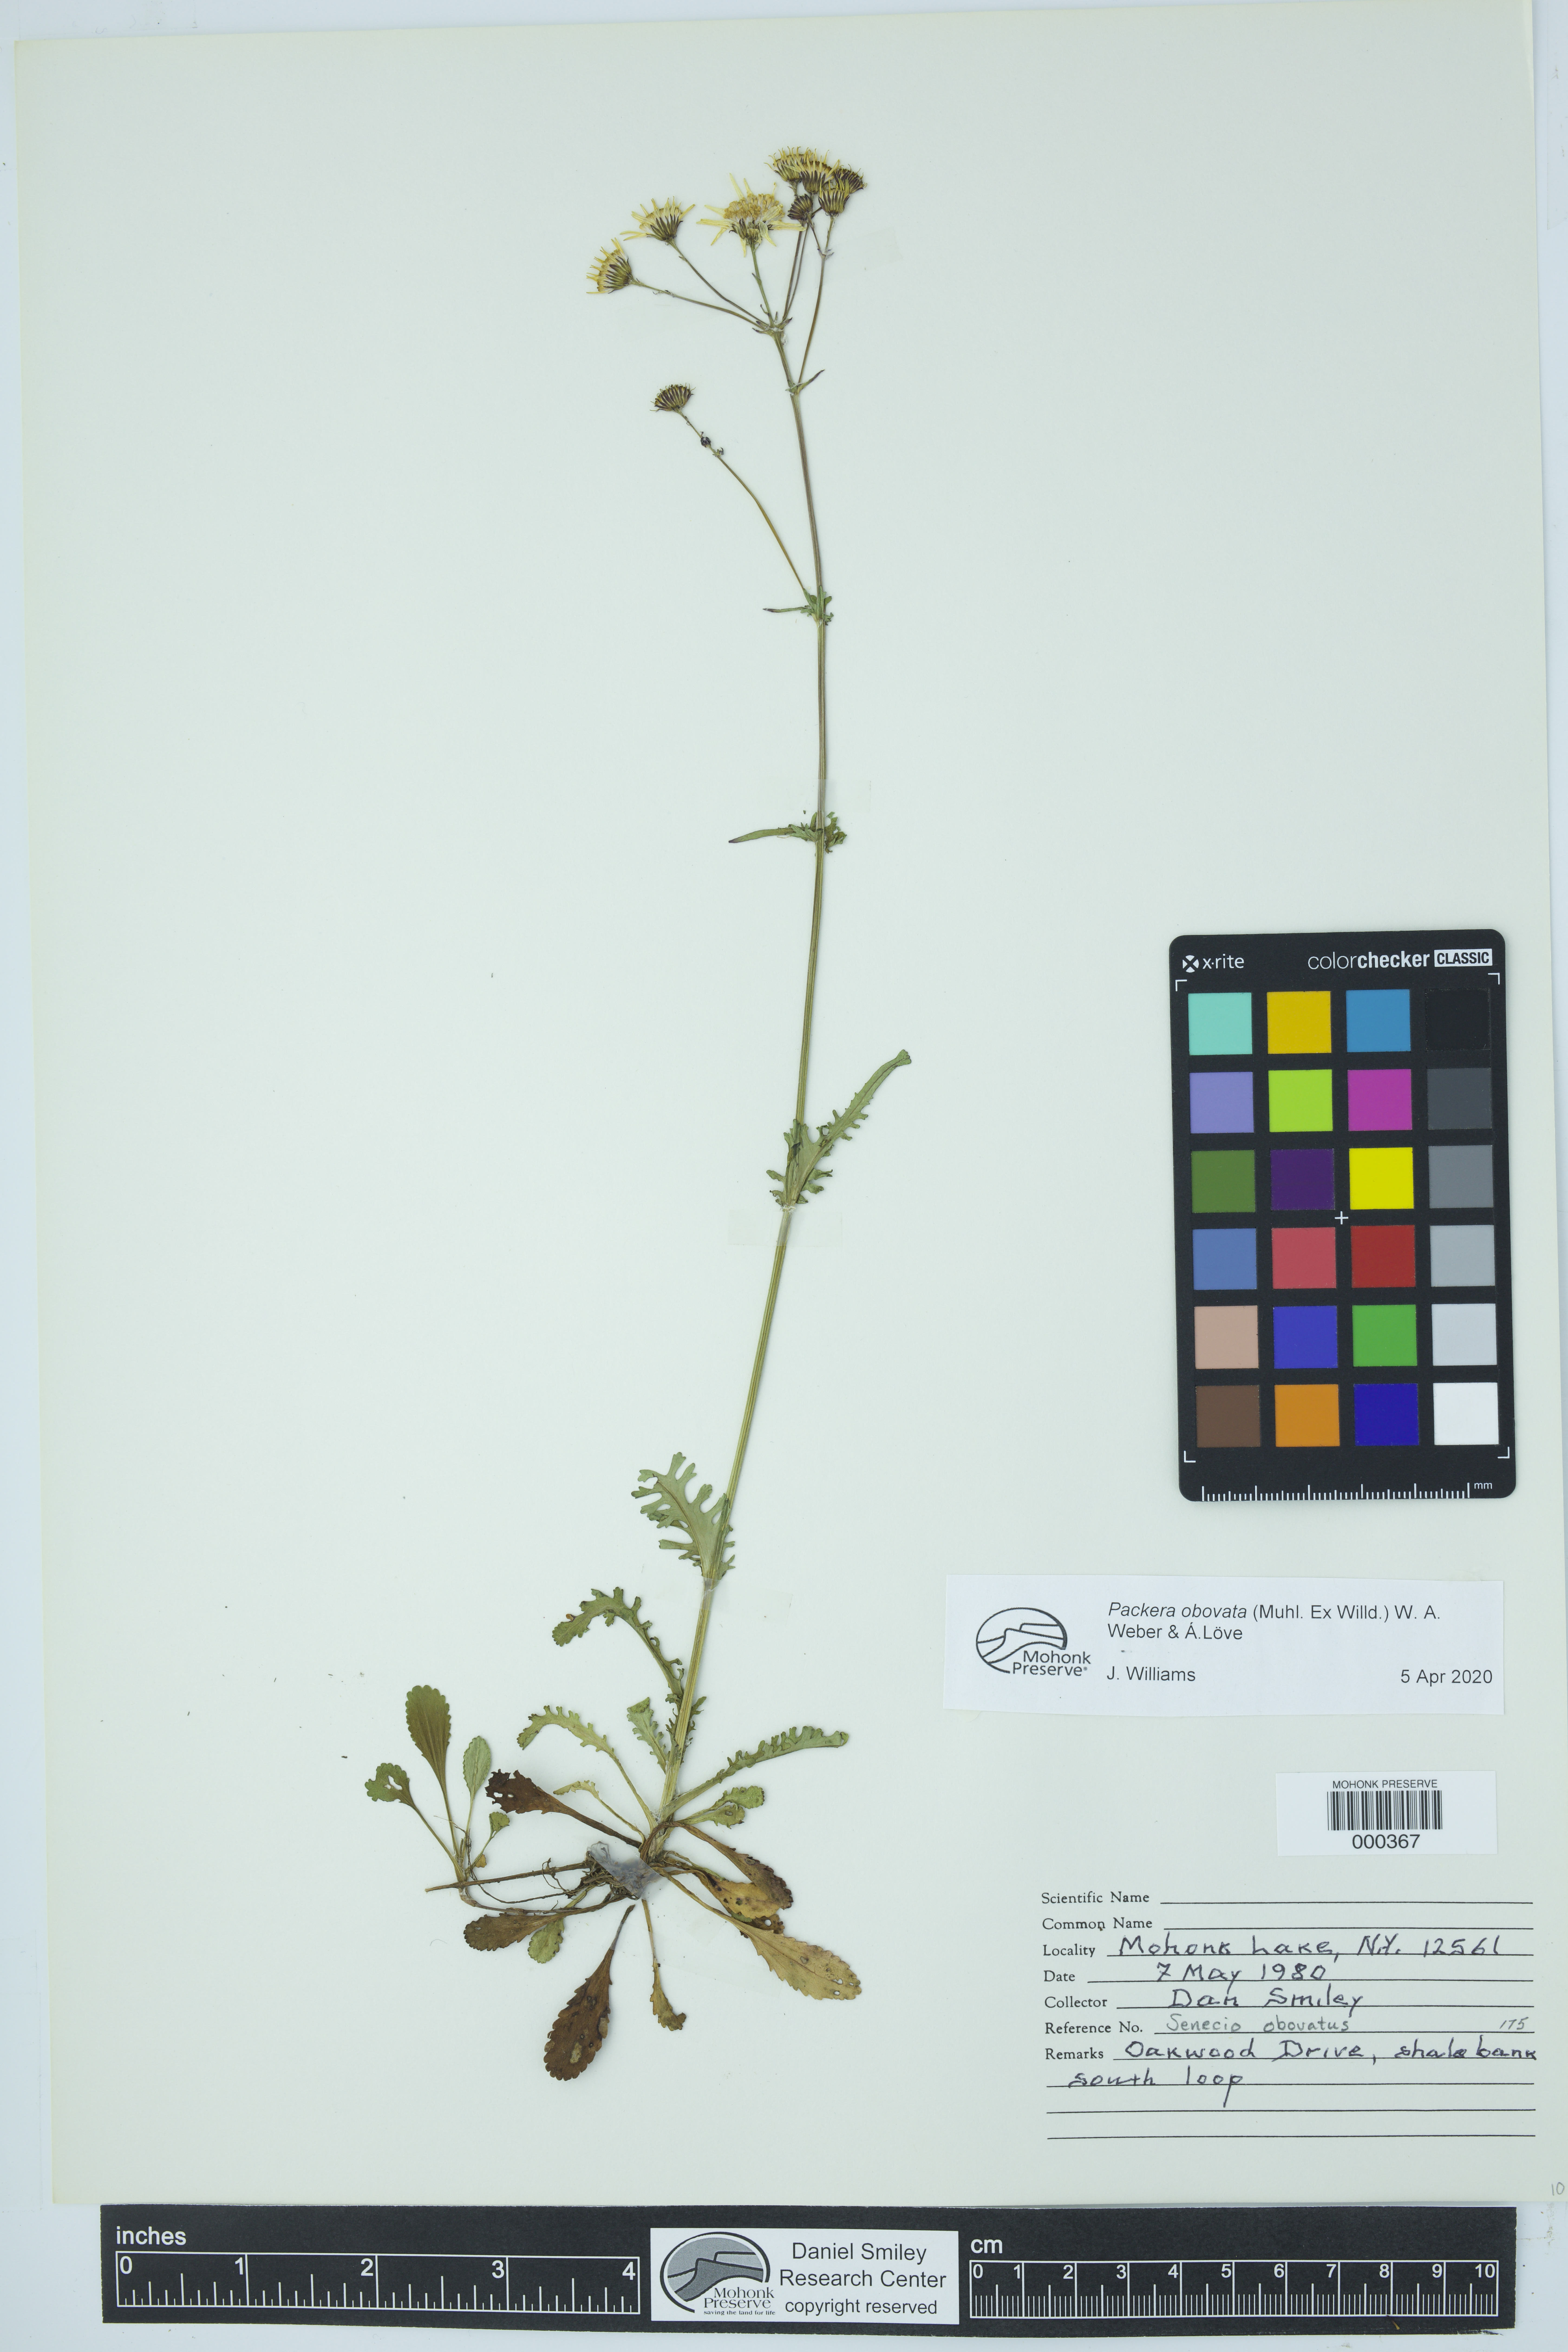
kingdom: Plantae
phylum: Tracheophyta
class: Magnoliopsida
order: Asterales
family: Asteraceae
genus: Packera
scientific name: Packera obovata
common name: Round-leaf ragwort
